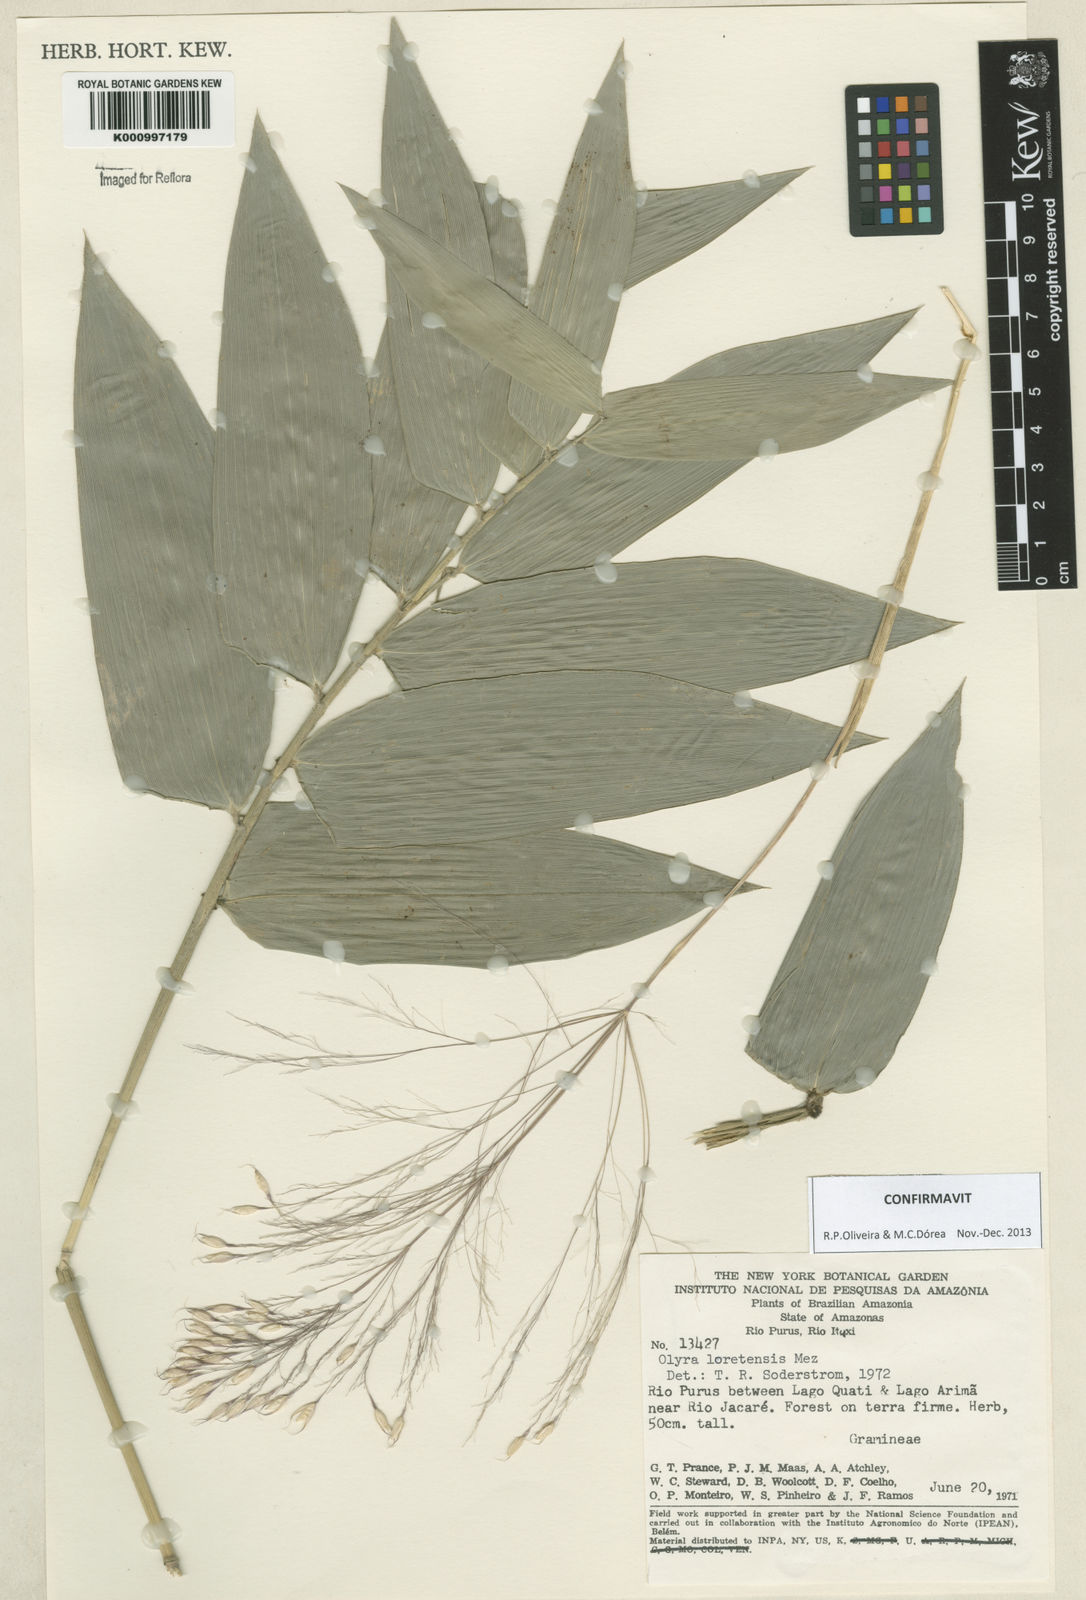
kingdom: Plantae
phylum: Tracheophyta
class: Liliopsida
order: Poales
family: Poaceae
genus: Olyra
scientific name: Olyra loretensis
